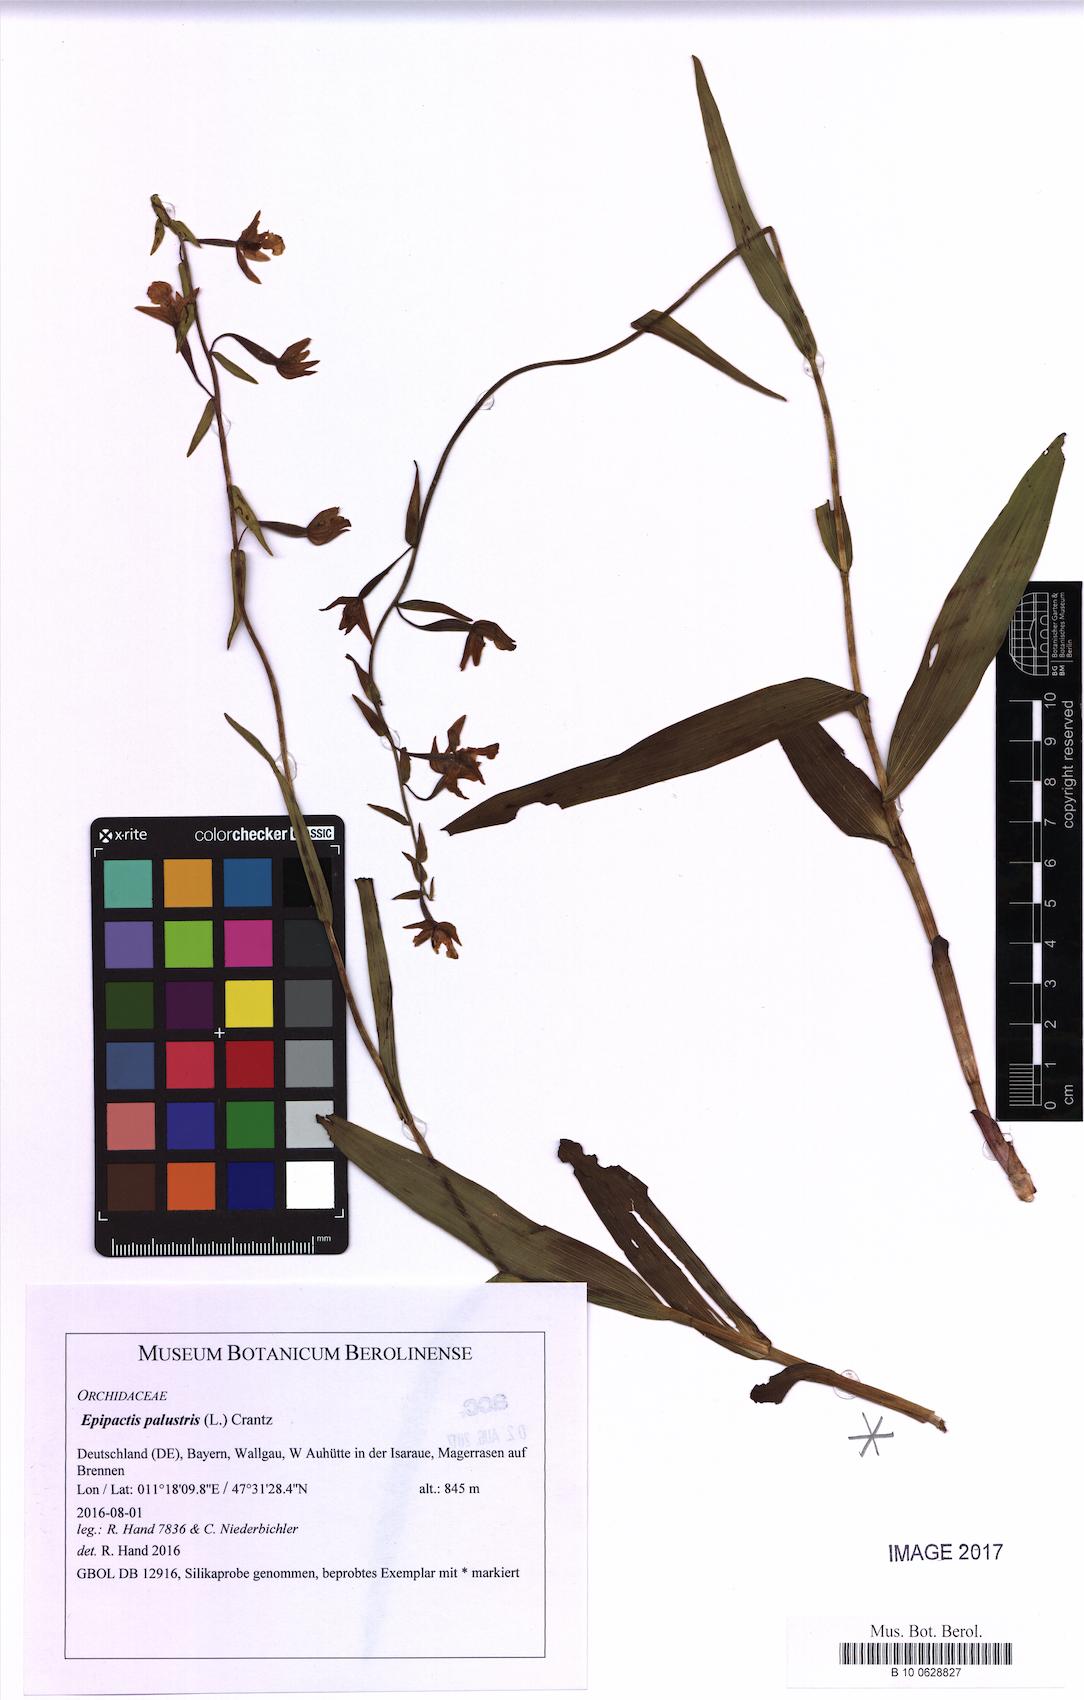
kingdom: Plantae
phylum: Tracheophyta
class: Liliopsida
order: Asparagales
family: Orchidaceae
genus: Epipactis
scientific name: Epipactis palustris
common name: Marsh helleborine
